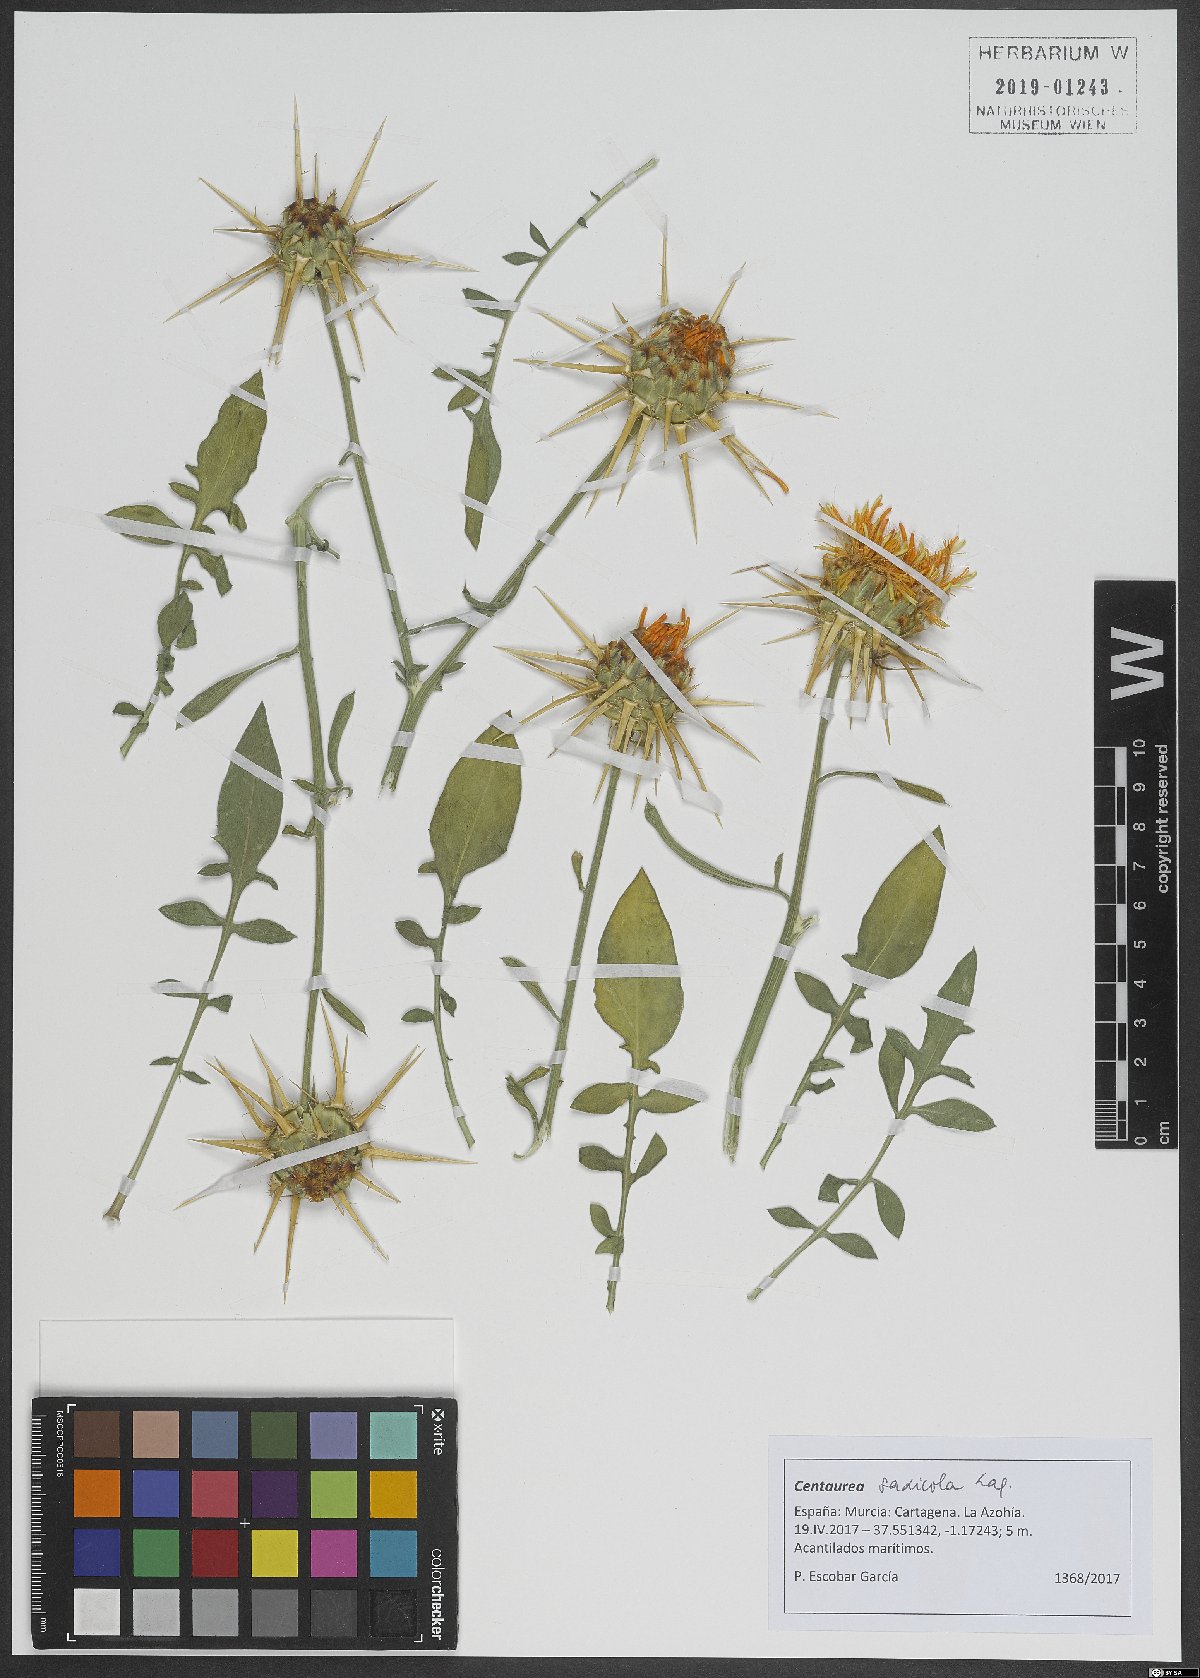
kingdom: Plantae
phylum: Tracheophyta
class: Magnoliopsida
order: Asterales
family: Asteraceae
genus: Centaurea
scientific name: Centaurea saxicola
